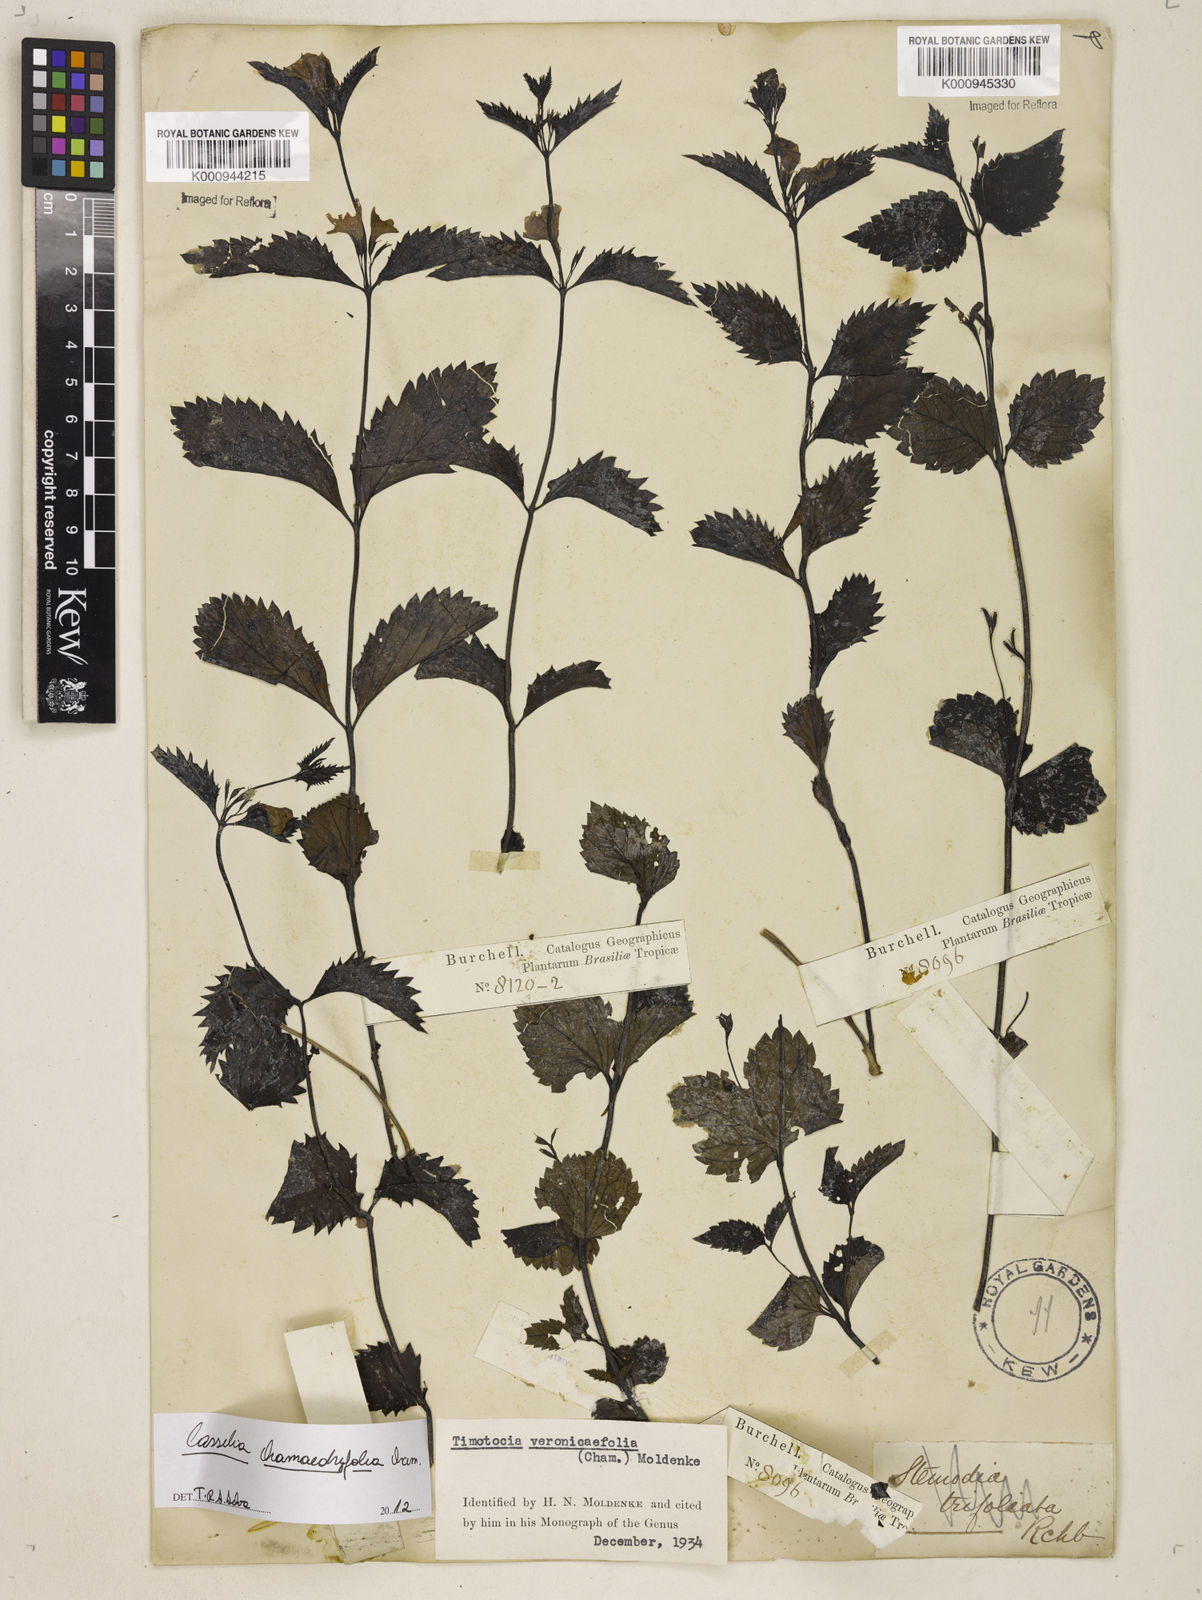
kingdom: Plantae
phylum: Tracheophyta
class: Magnoliopsida
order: Lamiales
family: Verbenaceae
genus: Casselia
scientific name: Casselia chamaedryfolia
